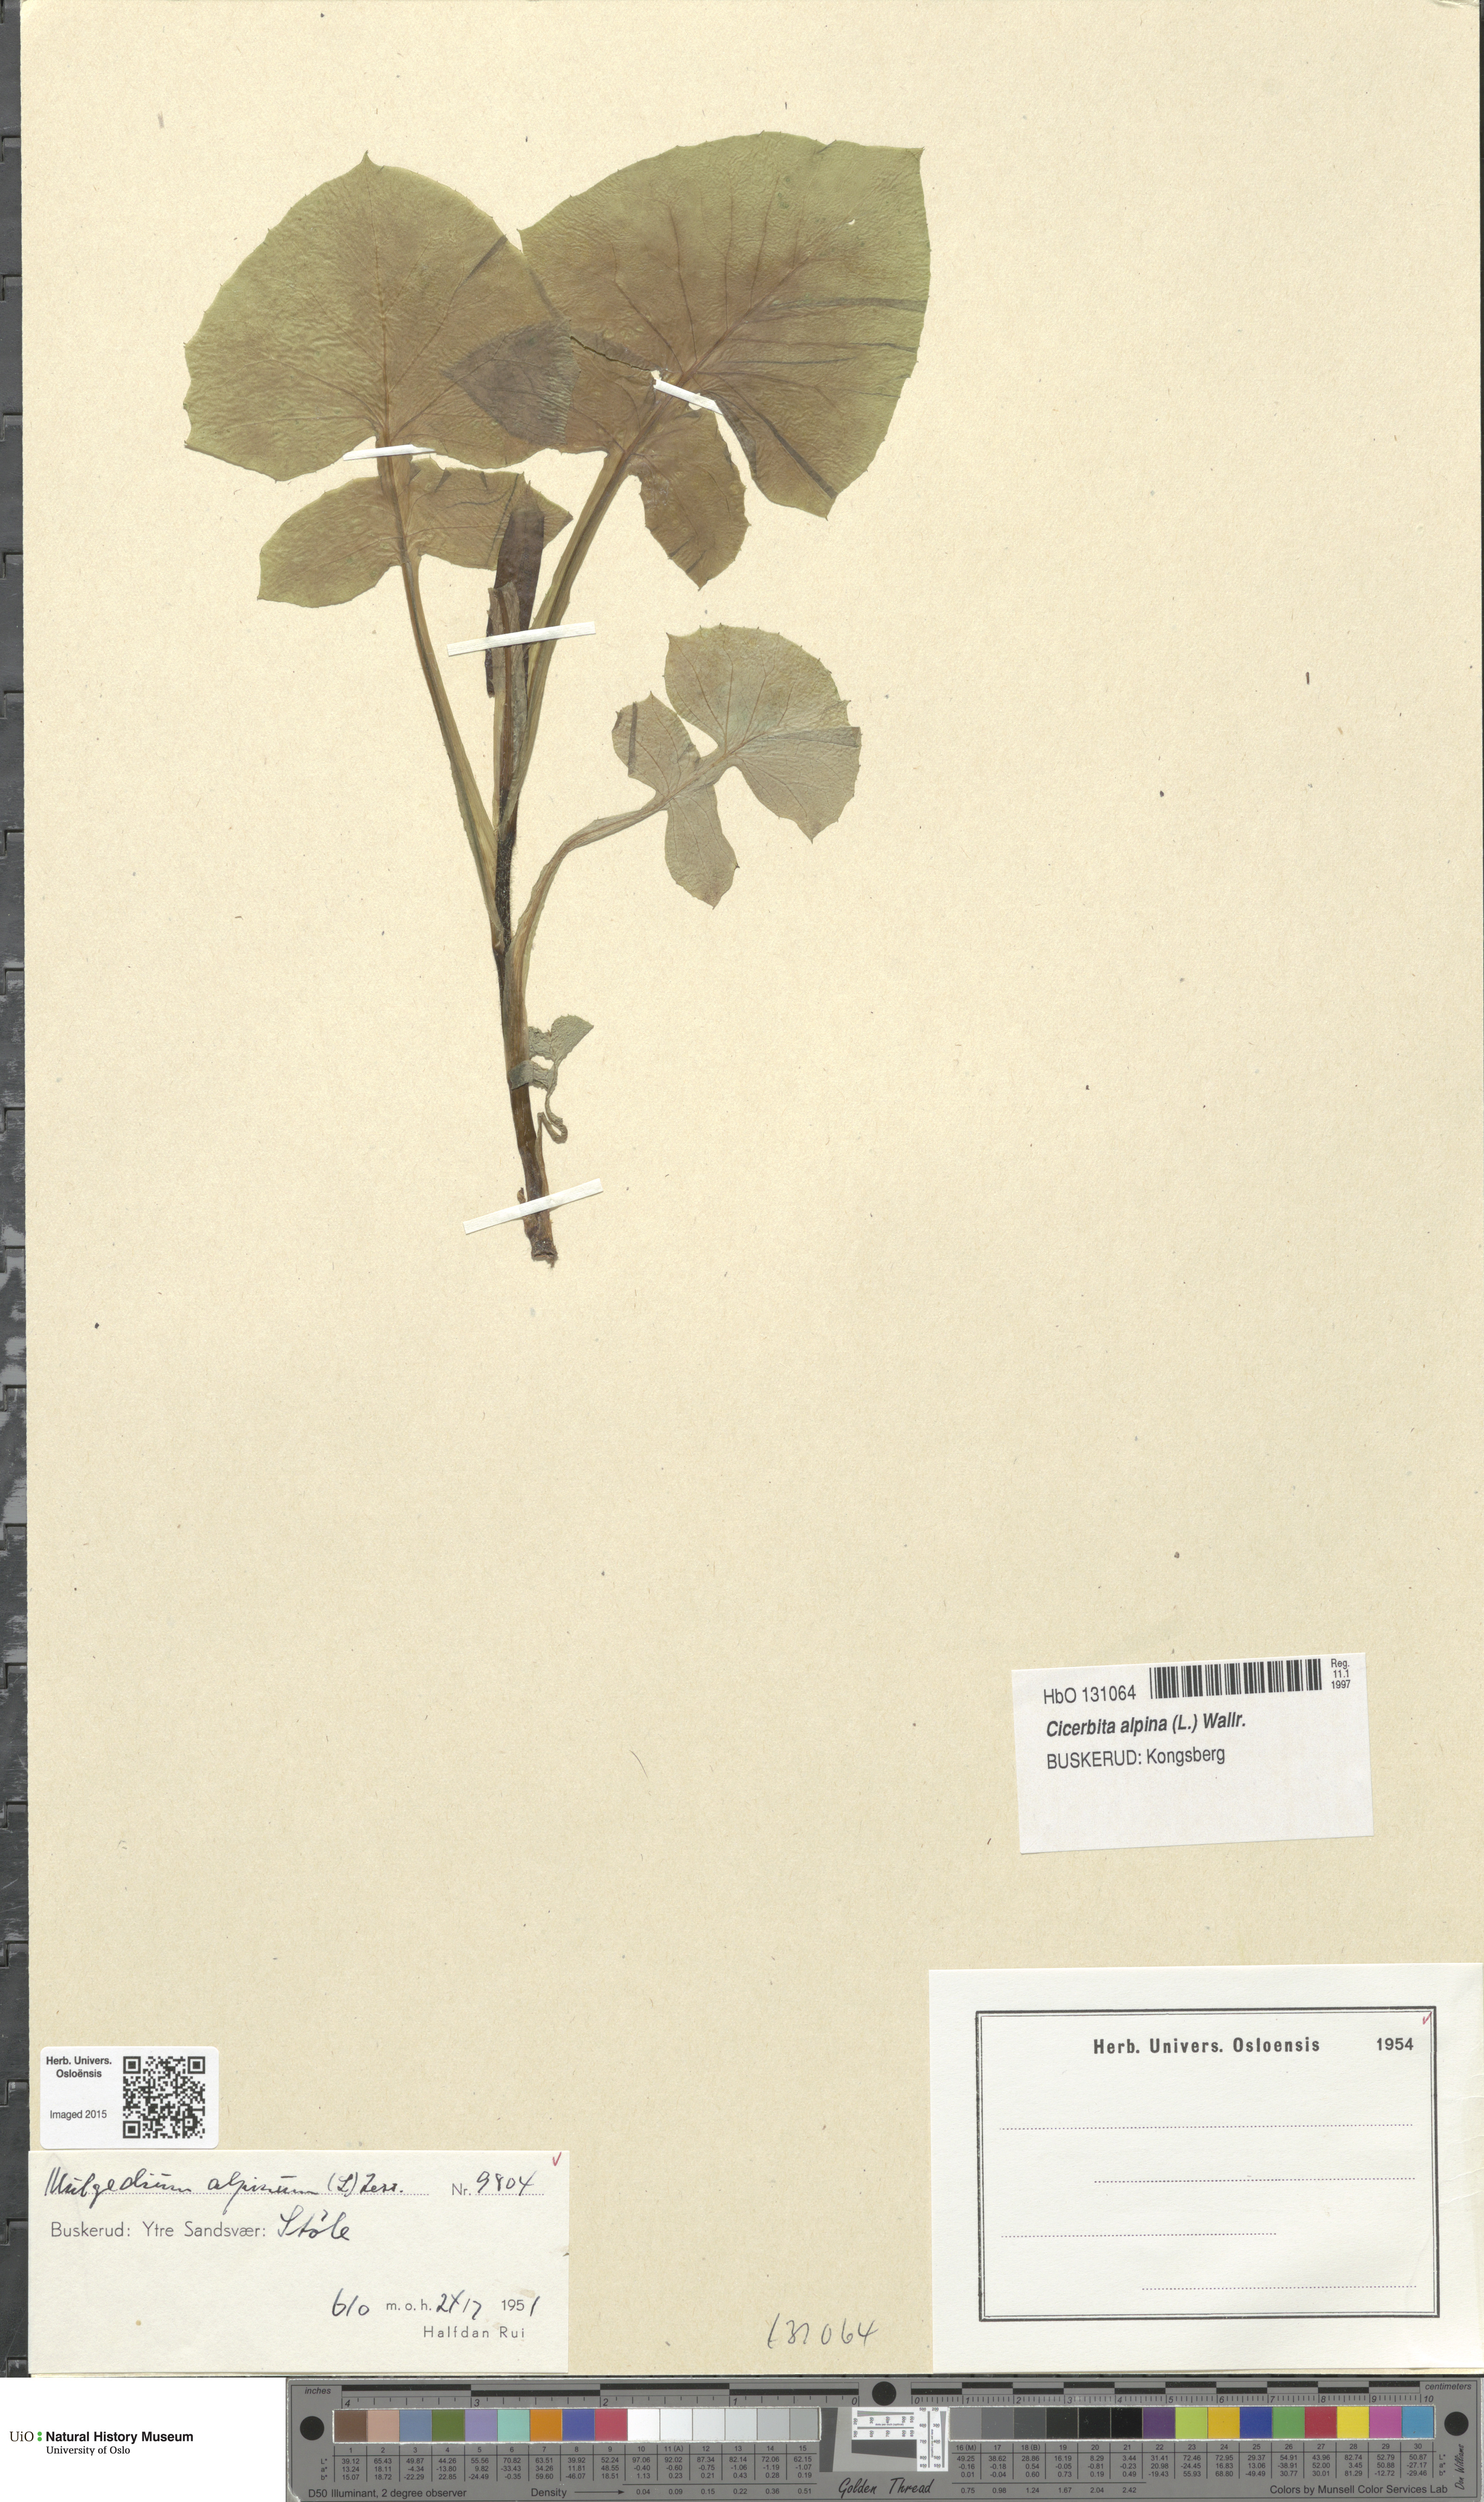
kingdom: Plantae
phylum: Tracheophyta
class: Magnoliopsida
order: Asterales
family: Asteraceae
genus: Cicerbita
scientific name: Cicerbita alpina
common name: Alpine blue-sow-thistle
